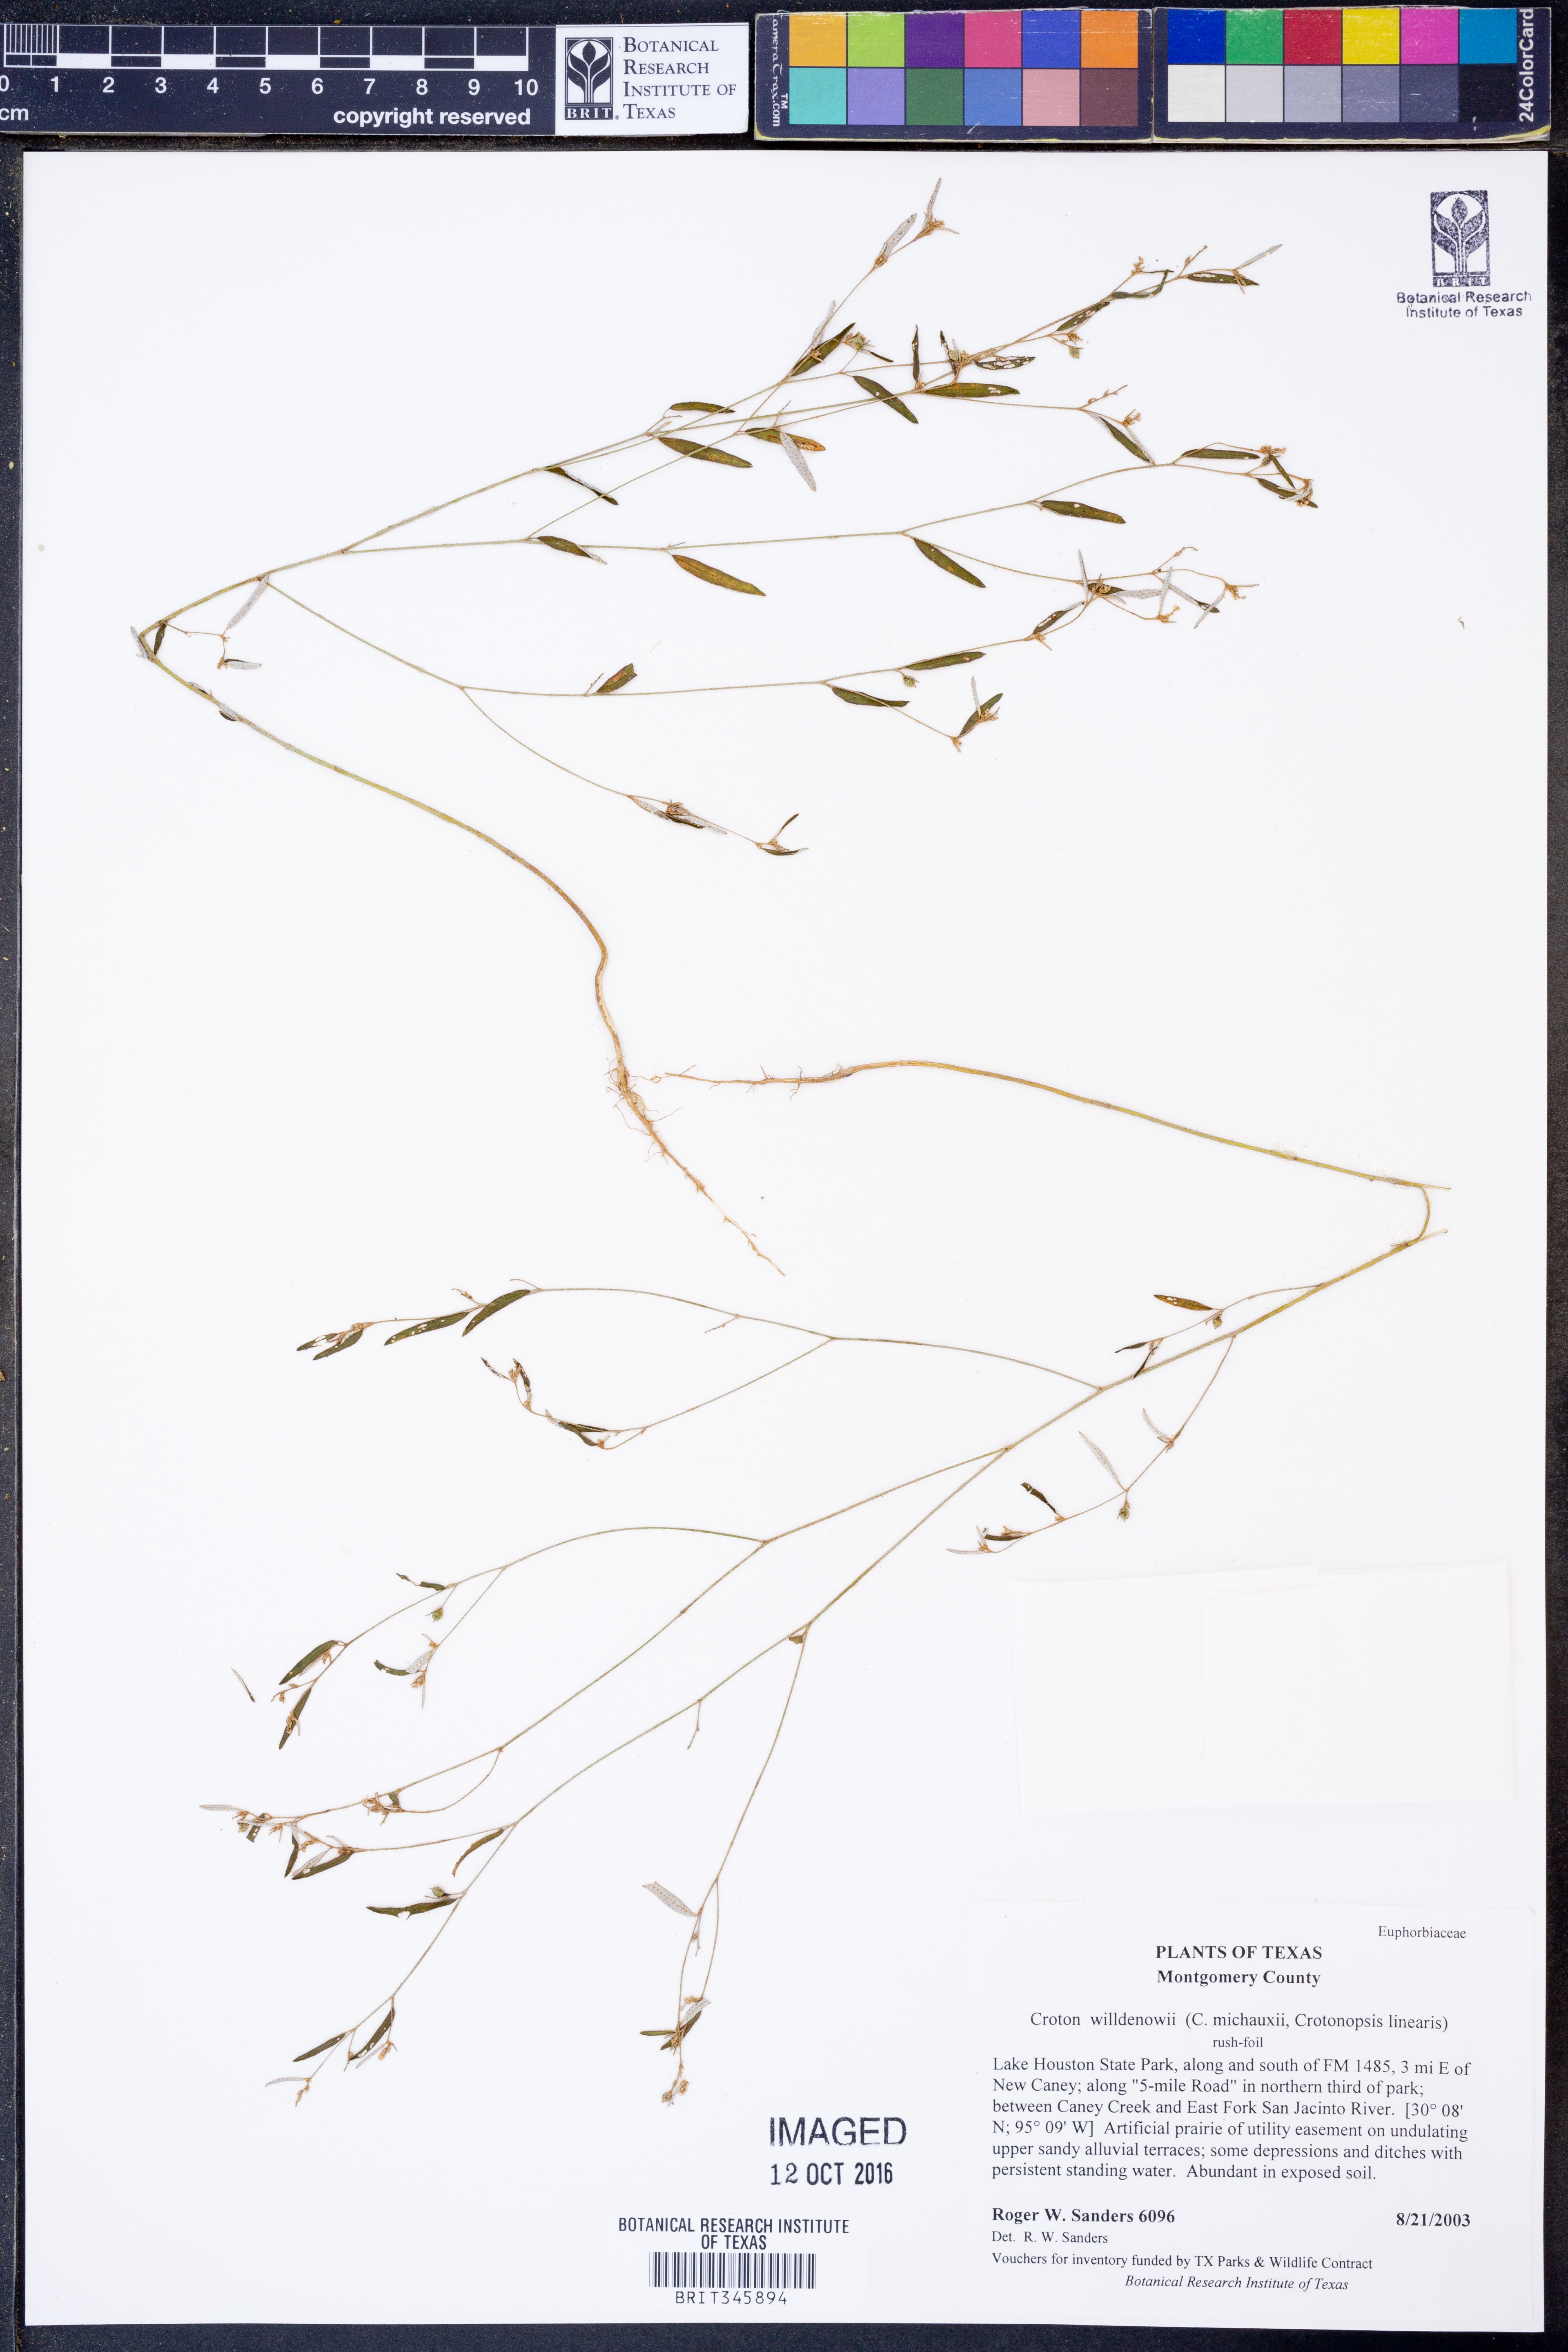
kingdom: Plantae
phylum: Tracheophyta
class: Magnoliopsida
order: Malpighiales
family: Euphorbiaceae
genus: Croton
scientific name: Croton michauxii
